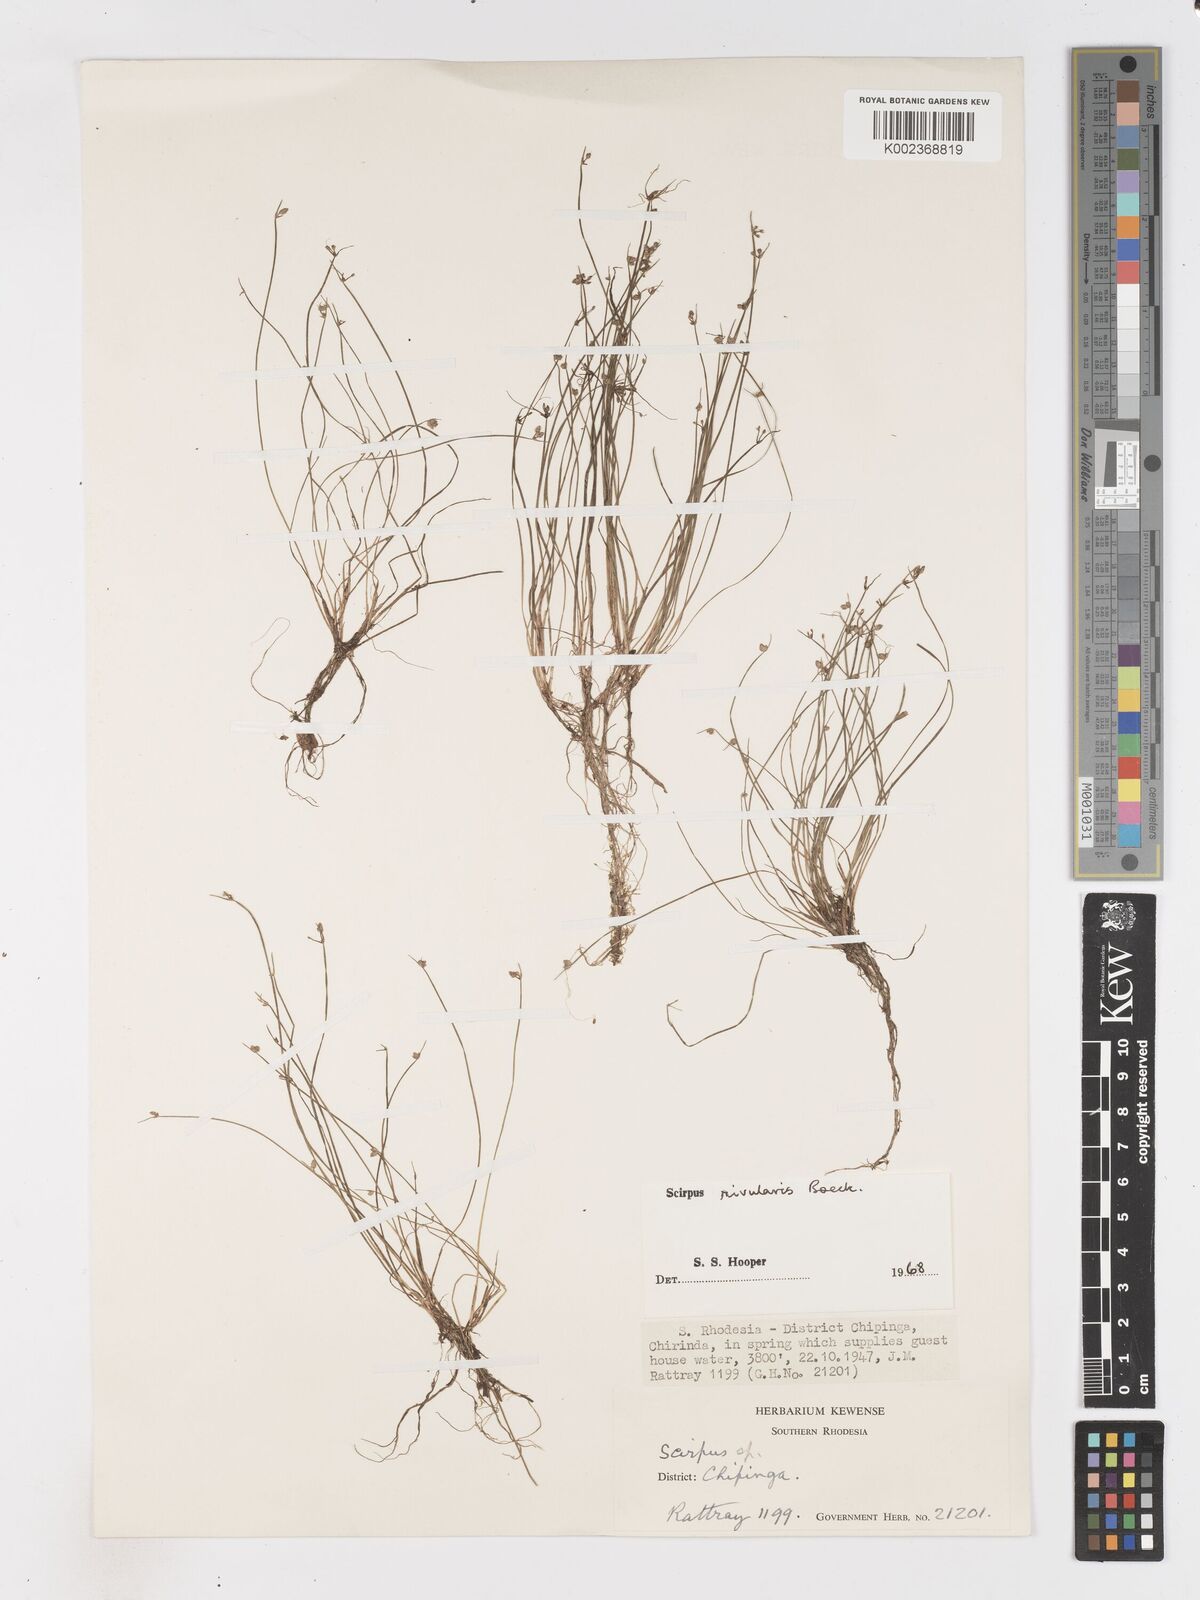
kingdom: Plantae
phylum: Tracheophyta
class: Liliopsida
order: Poales
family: Cyperaceae
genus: Isolepis
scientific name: Isolepis natans
